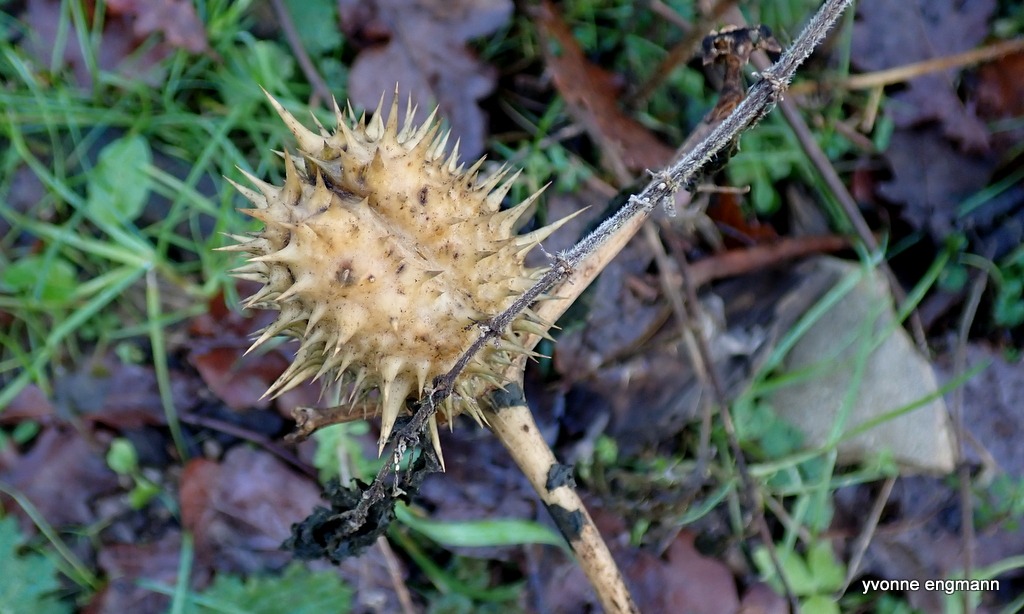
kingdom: Plantae
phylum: Tracheophyta
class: Magnoliopsida
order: Solanales
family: Solanaceae
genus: Datura
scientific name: Datura stramonium
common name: Pigæble
